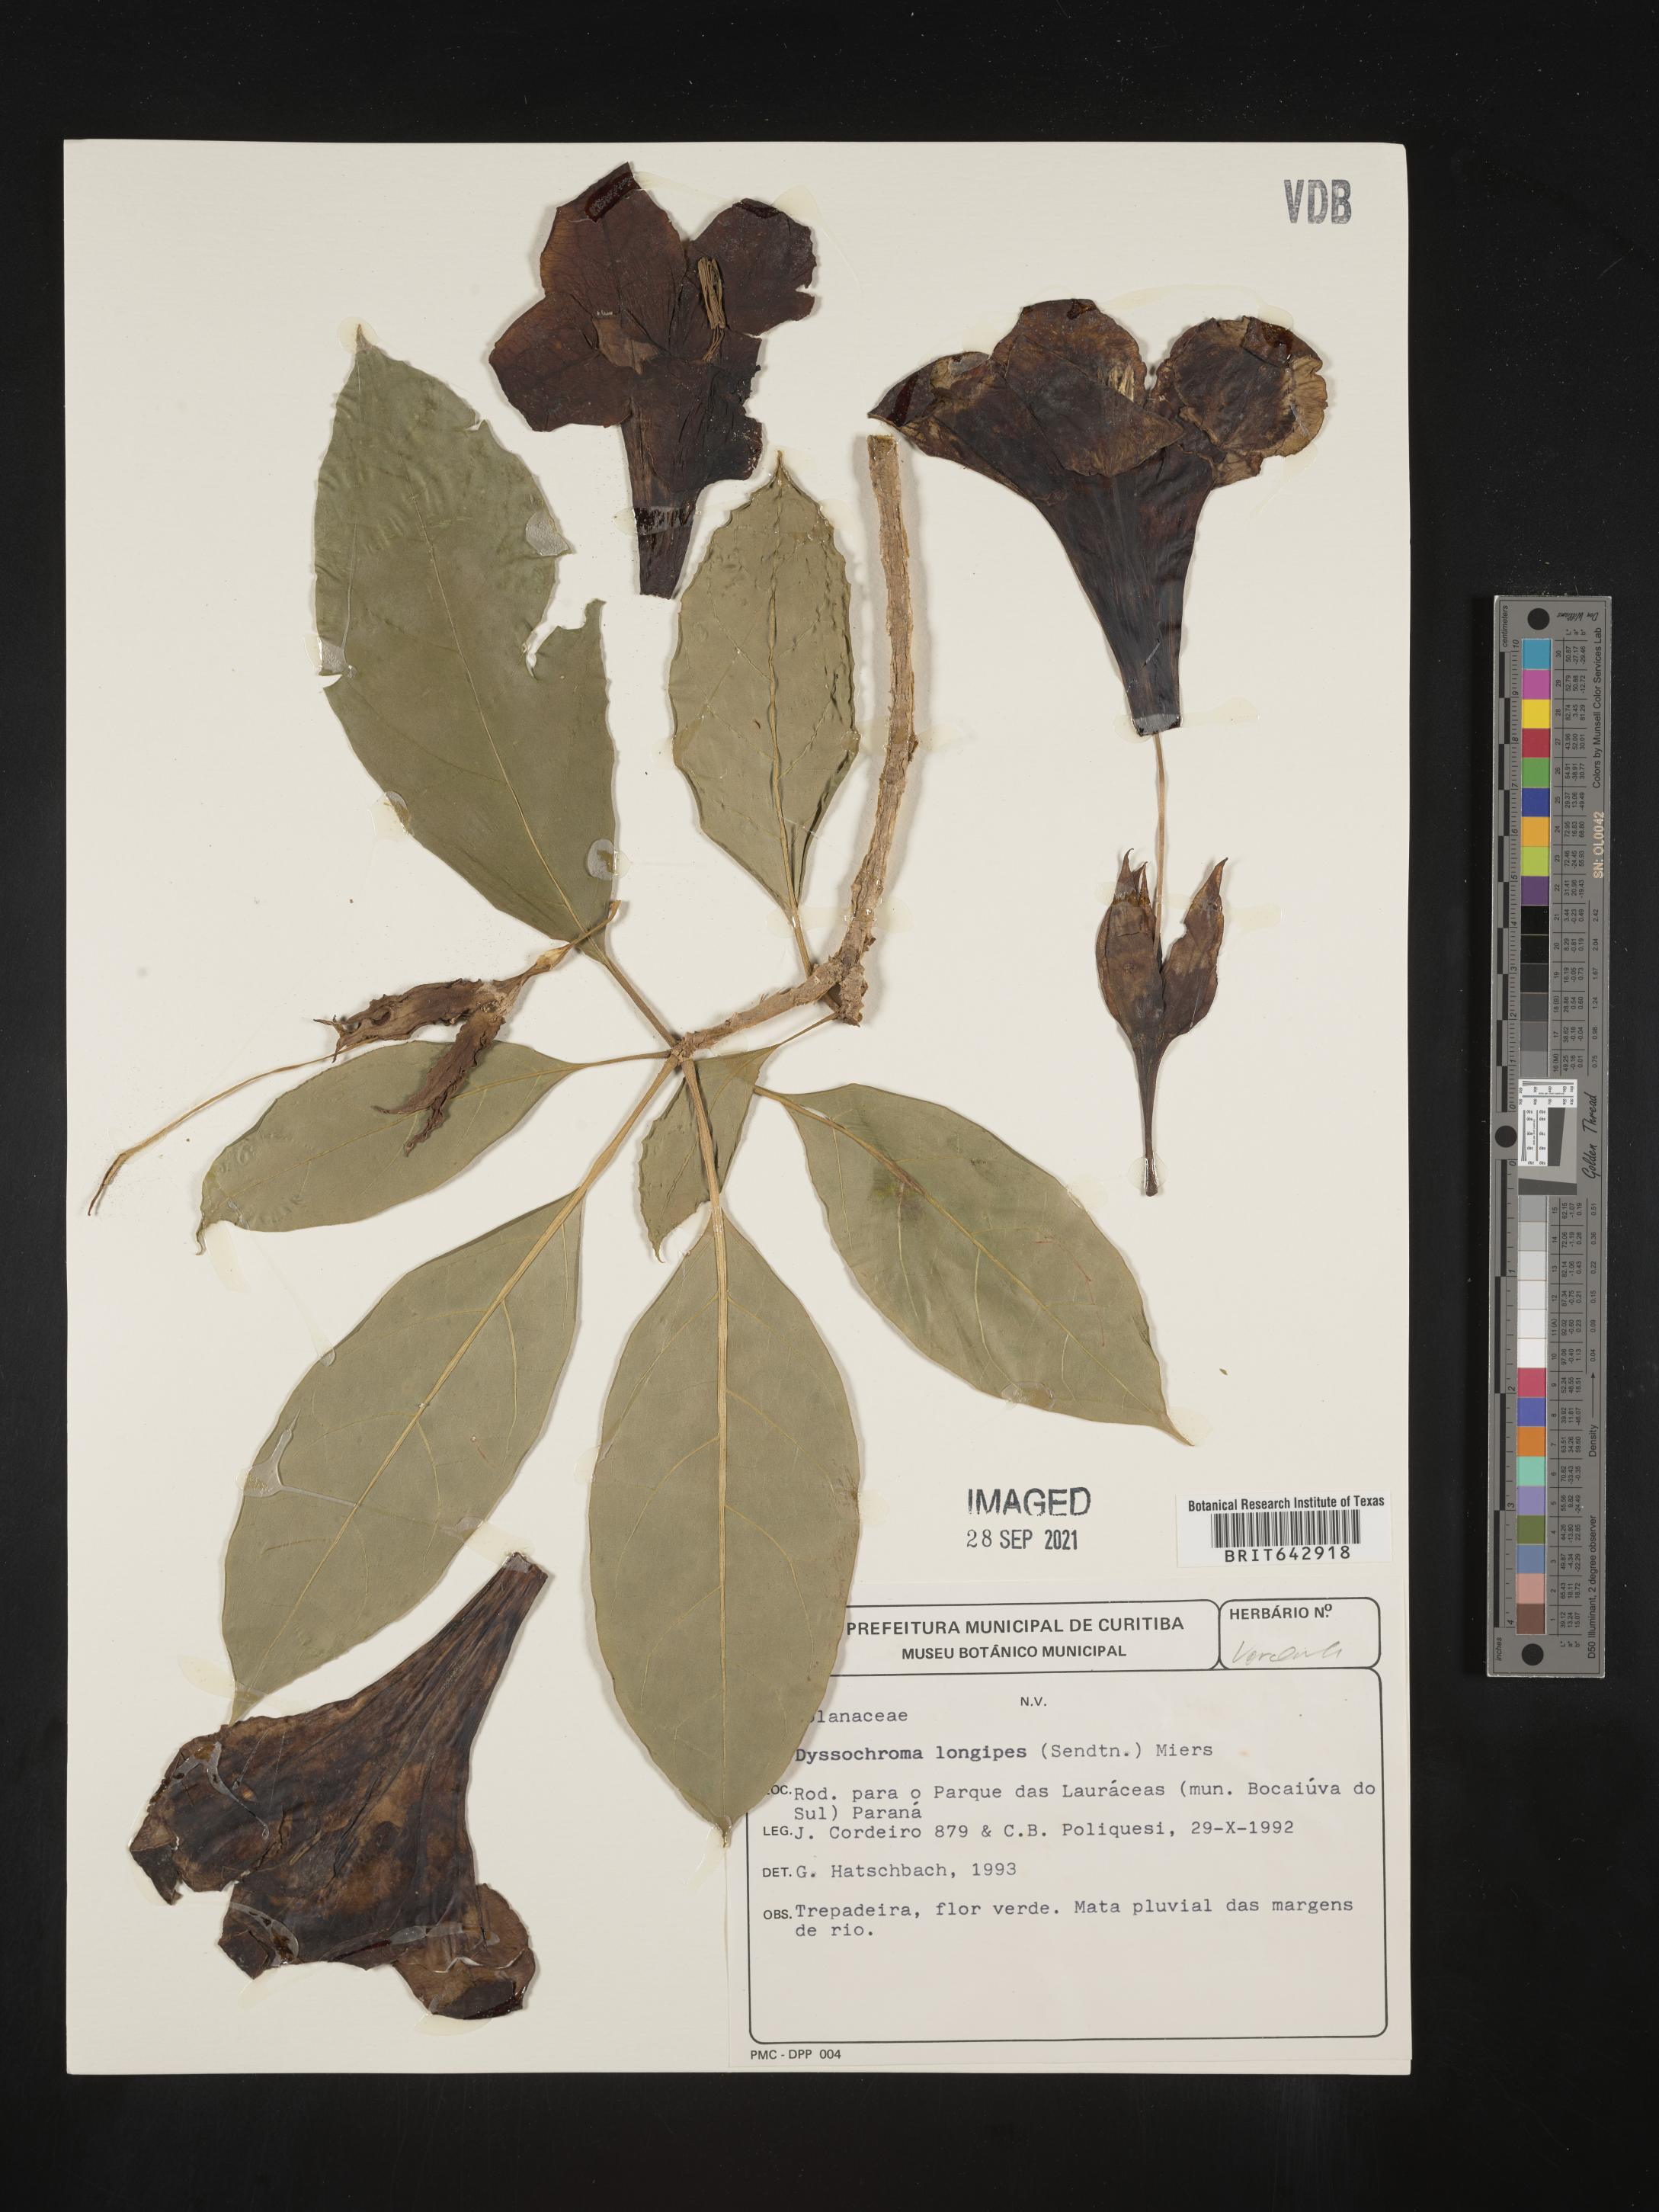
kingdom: Plantae
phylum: Tracheophyta
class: Magnoliopsida
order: Solanales
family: Solanaceae
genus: Dyssochroma
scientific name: Dyssochroma
